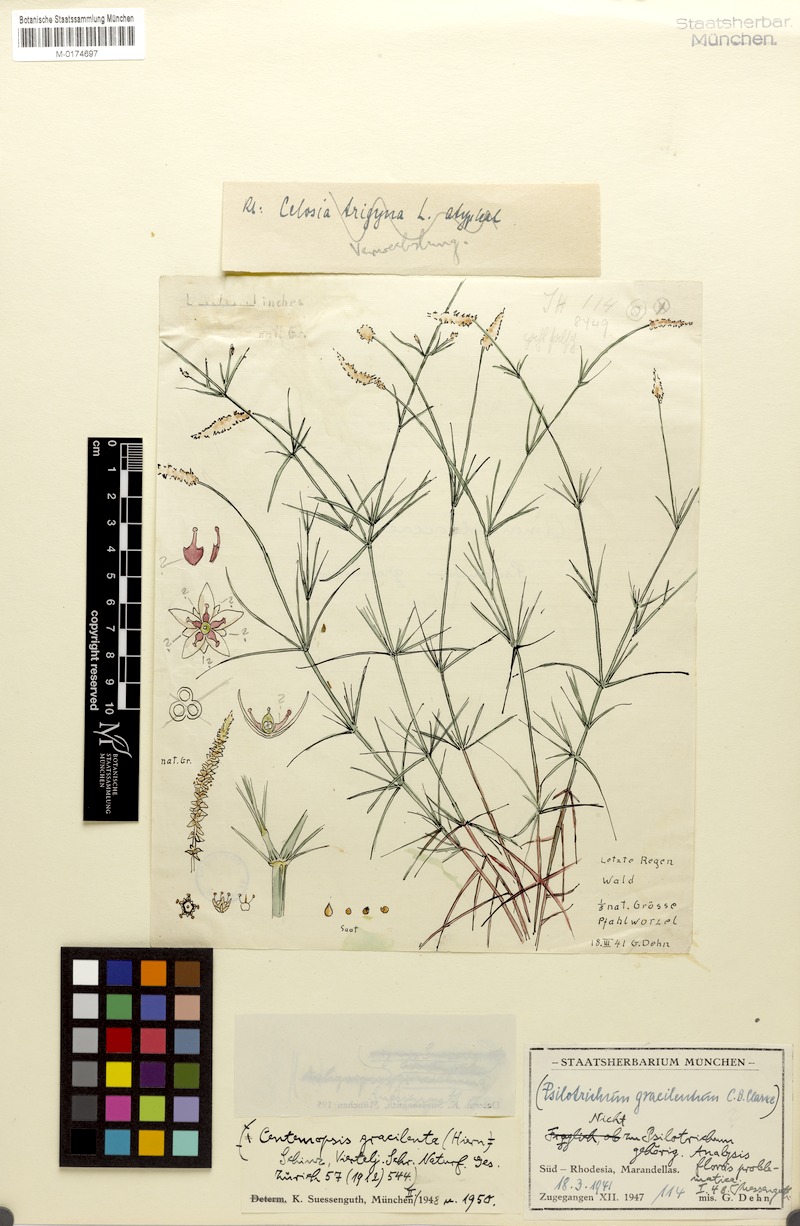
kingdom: Plantae
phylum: Tracheophyta
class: Magnoliopsida
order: Caryophyllales
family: Amaranthaceae
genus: Centemopsis
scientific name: Centemopsis gracilenta
